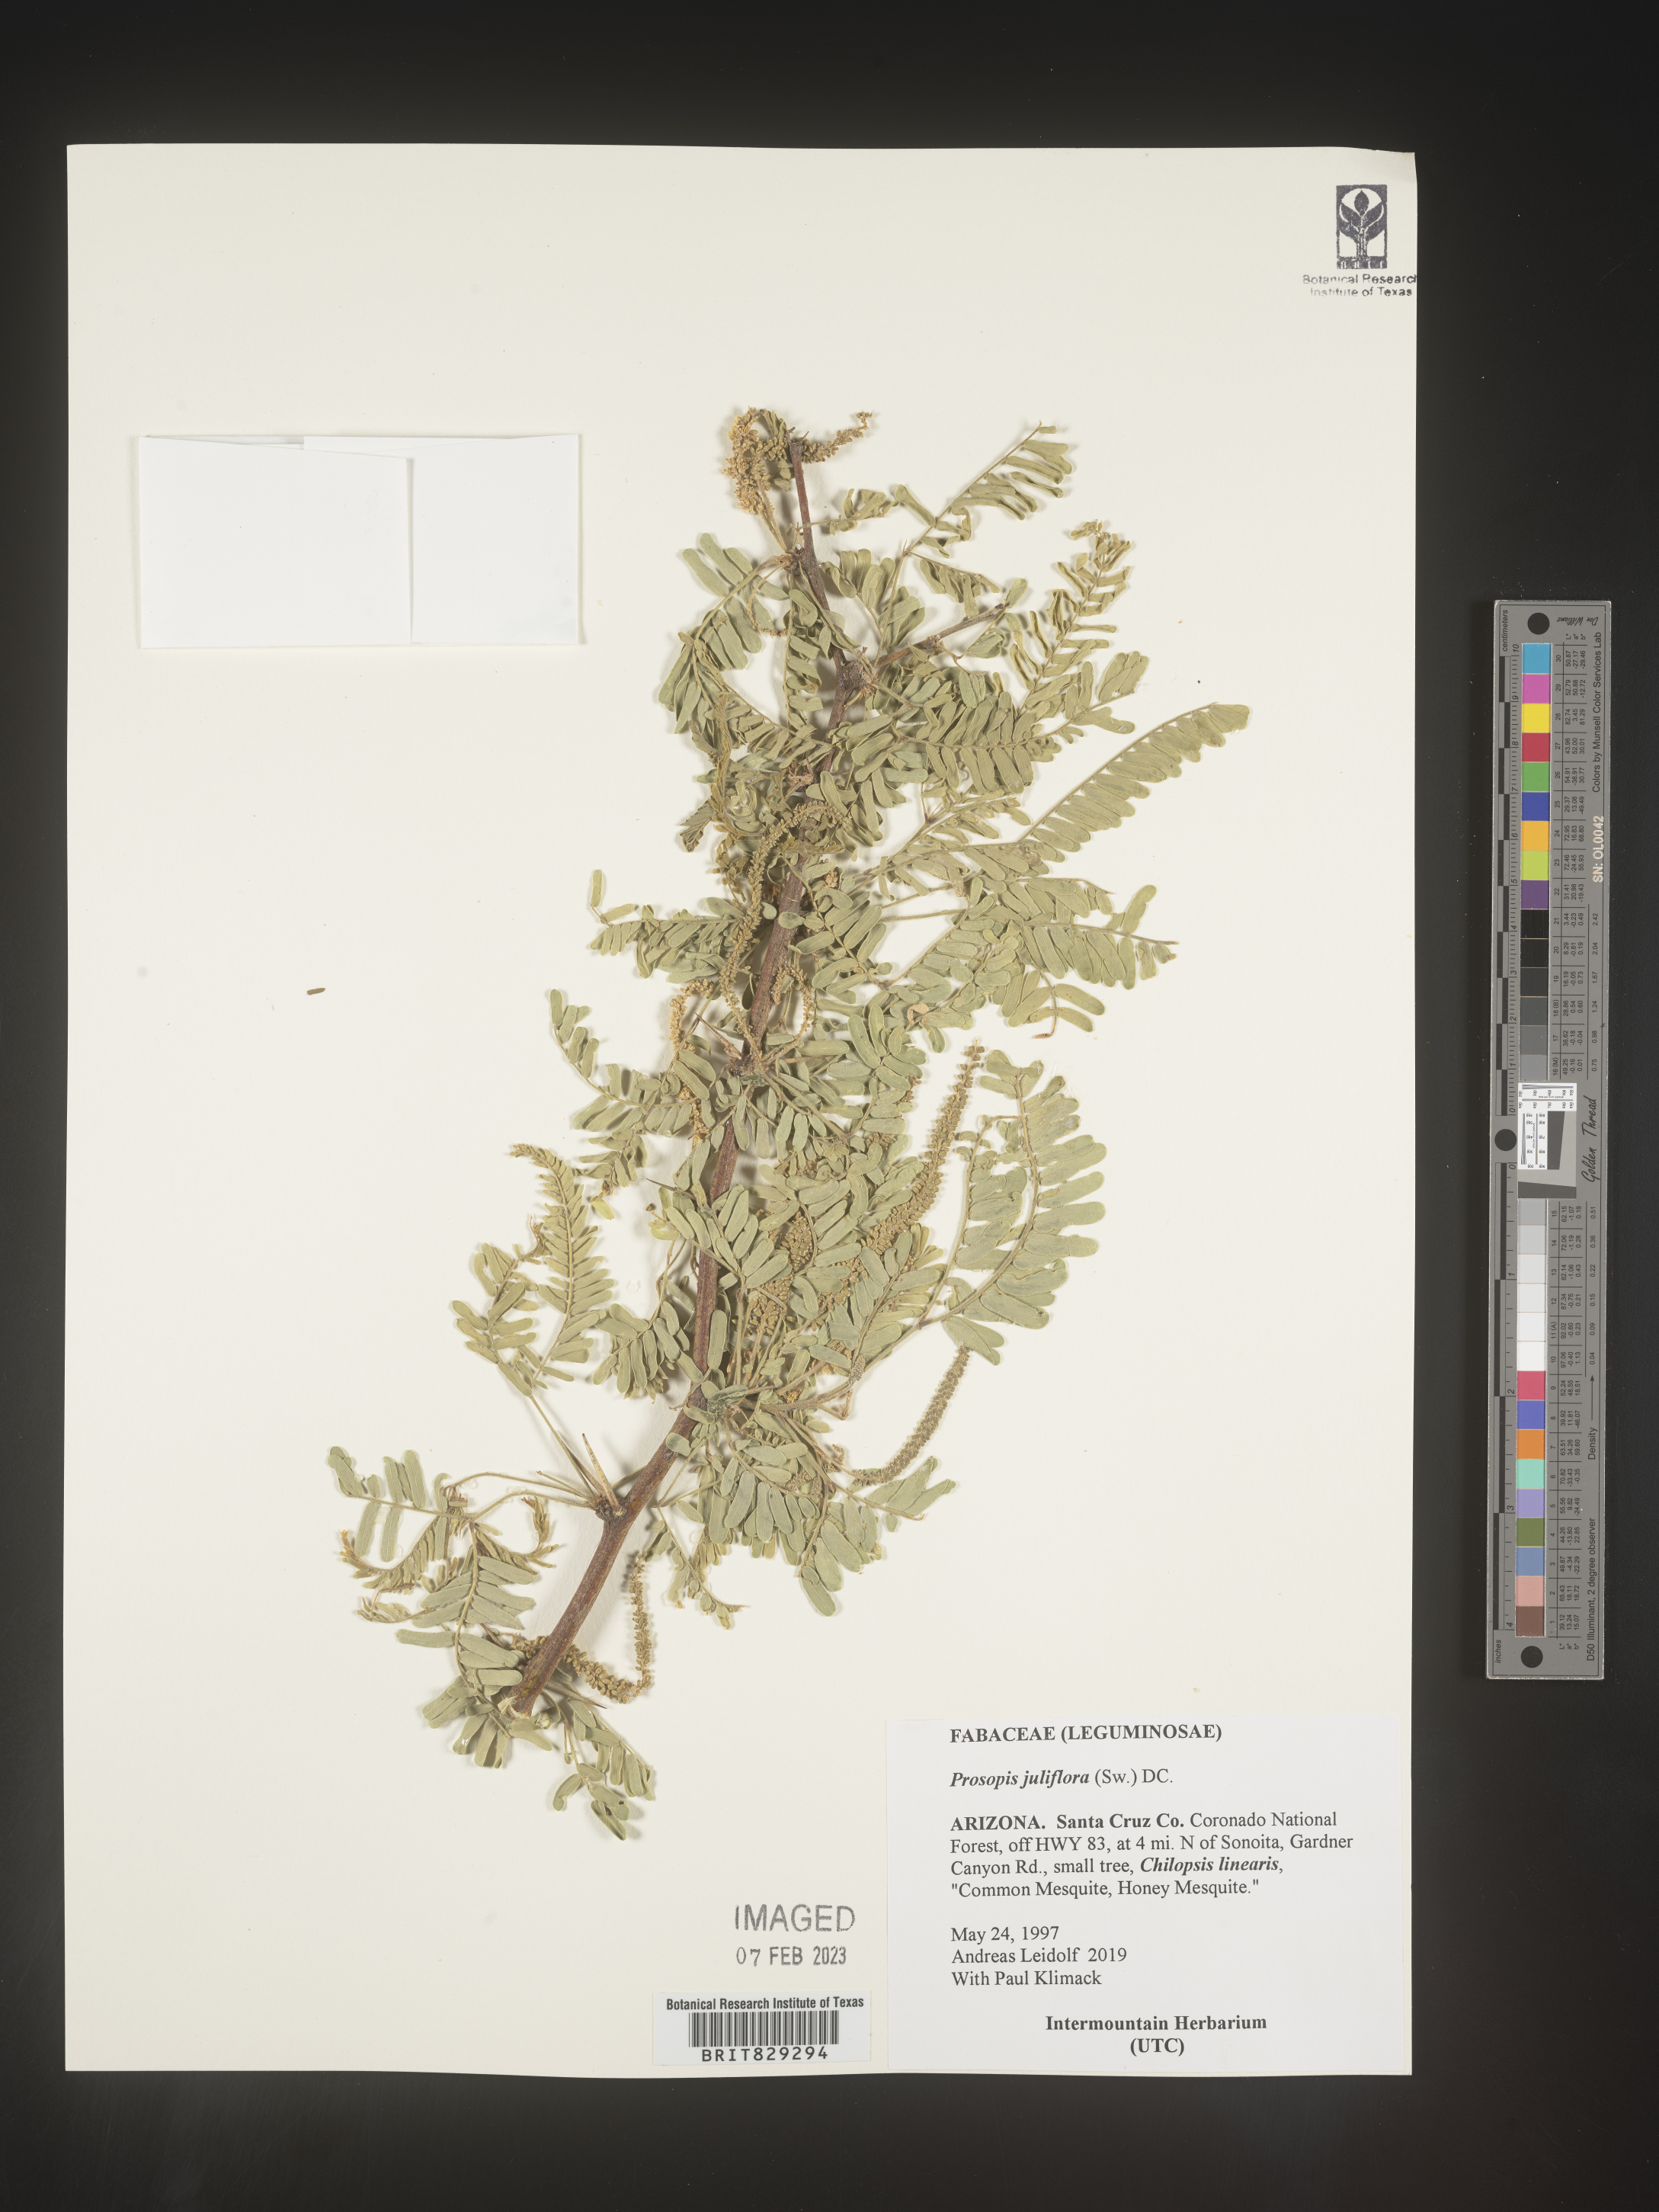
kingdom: Plantae
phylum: Tracheophyta
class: Magnoliopsida
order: Fabales
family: Fabaceae
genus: Prosopis
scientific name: Prosopis juliflora
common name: Mesquite
